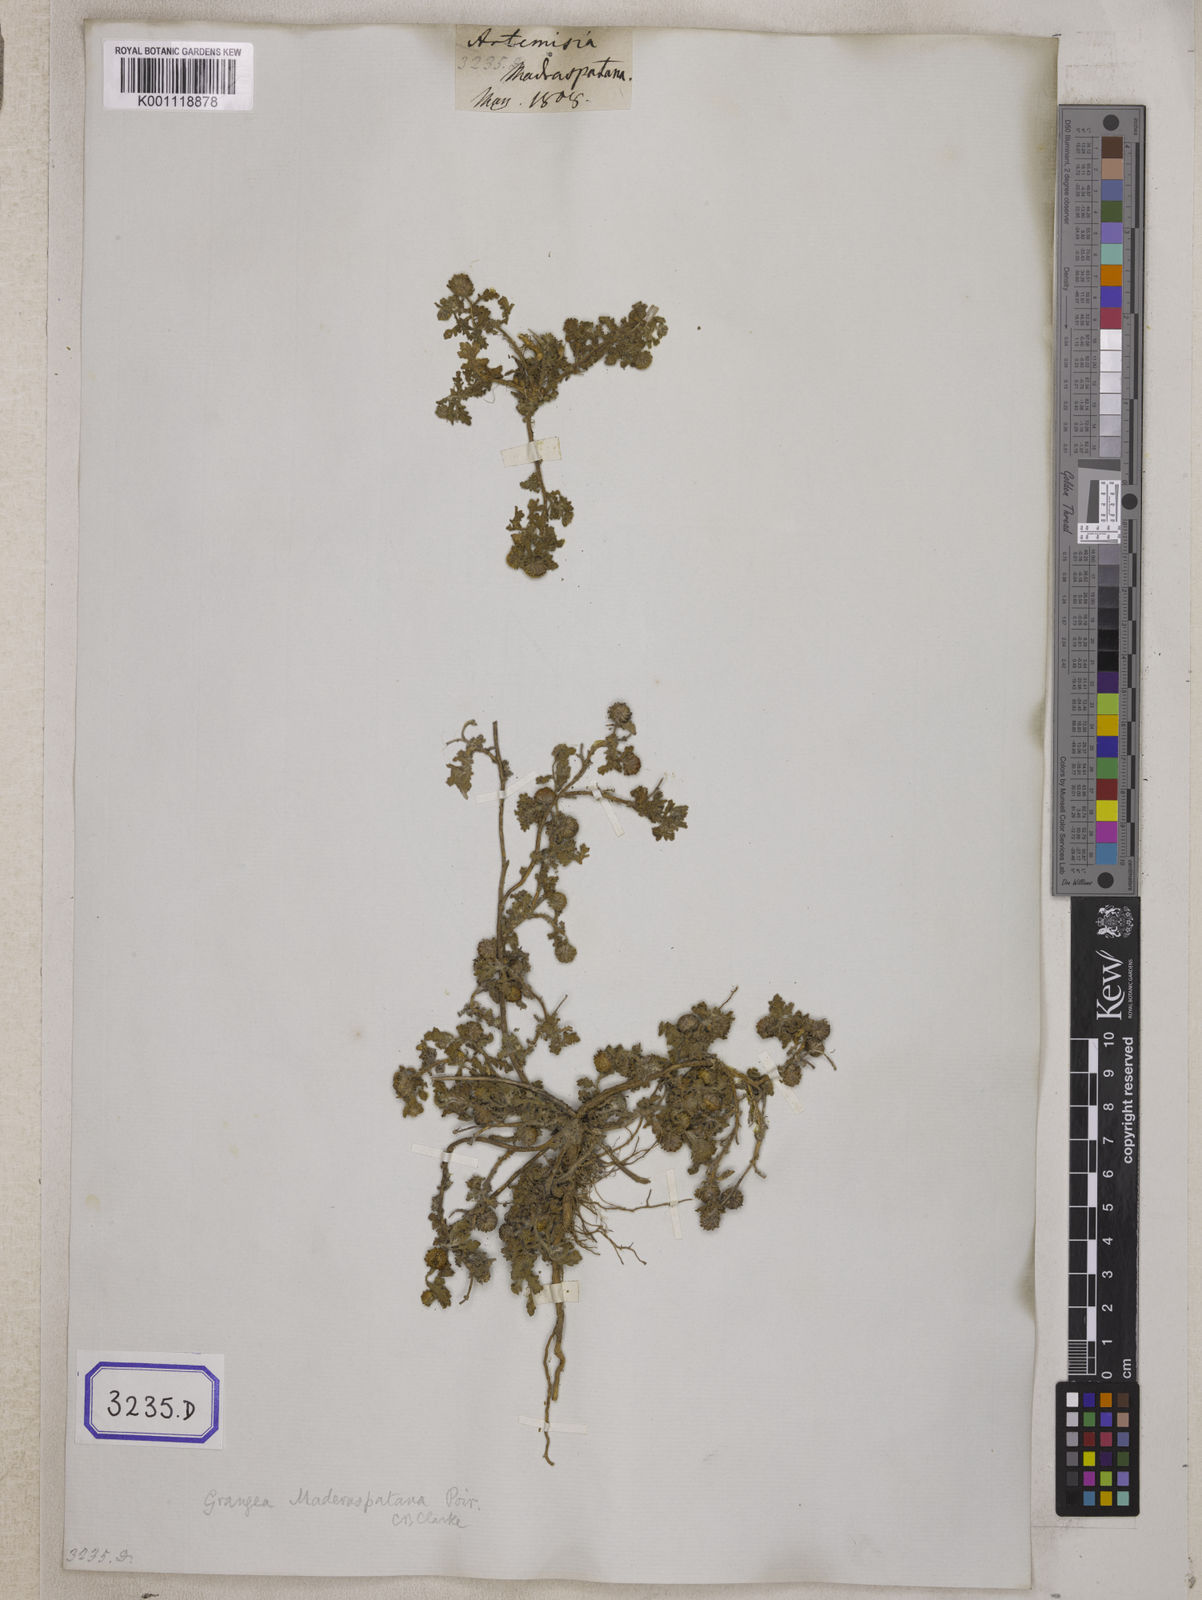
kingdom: Plantae
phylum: Tracheophyta
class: Magnoliopsida
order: Asterales
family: Asteraceae
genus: Grangea
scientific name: Grangea
